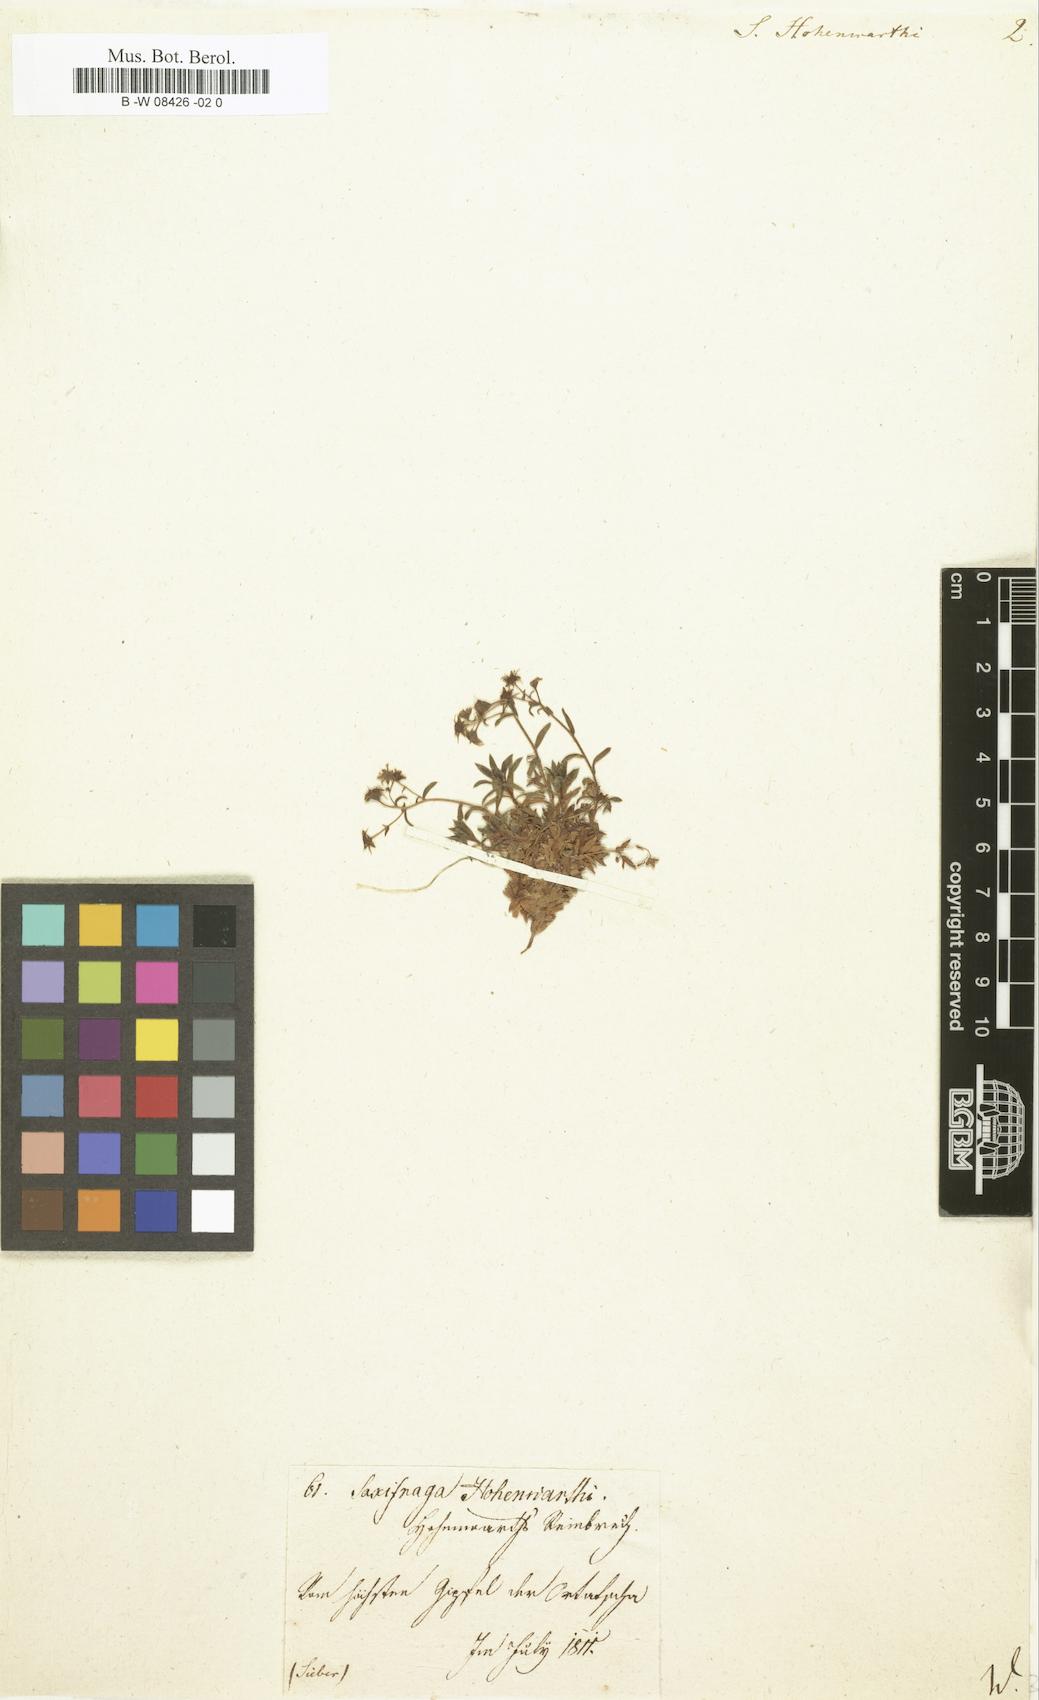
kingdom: Plantae
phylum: Tracheophyta
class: Magnoliopsida
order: Saxifragales
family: Saxifragaceae
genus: Saxifraga
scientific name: Saxifraga hohenwartii
